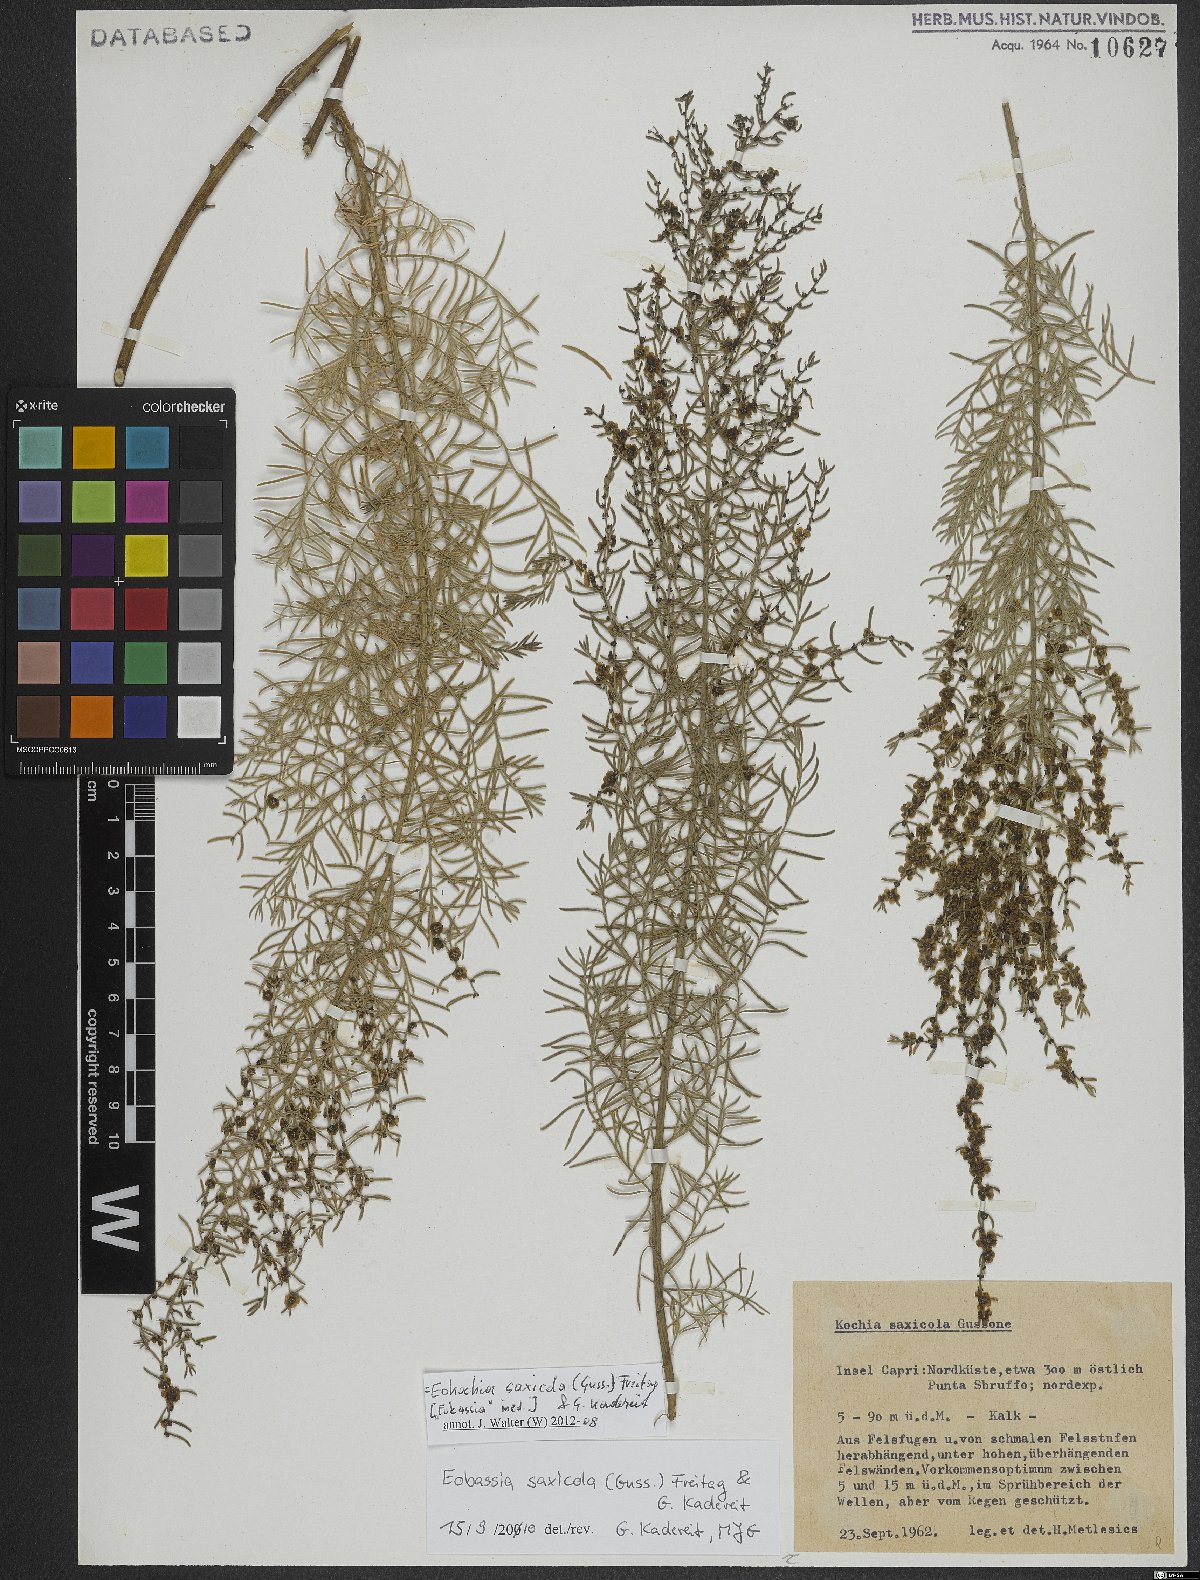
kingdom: Plantae
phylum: Tracheophyta
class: Magnoliopsida
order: Caryophyllales
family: Amaranthaceae
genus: Eokochia
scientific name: Eokochia saxicola
